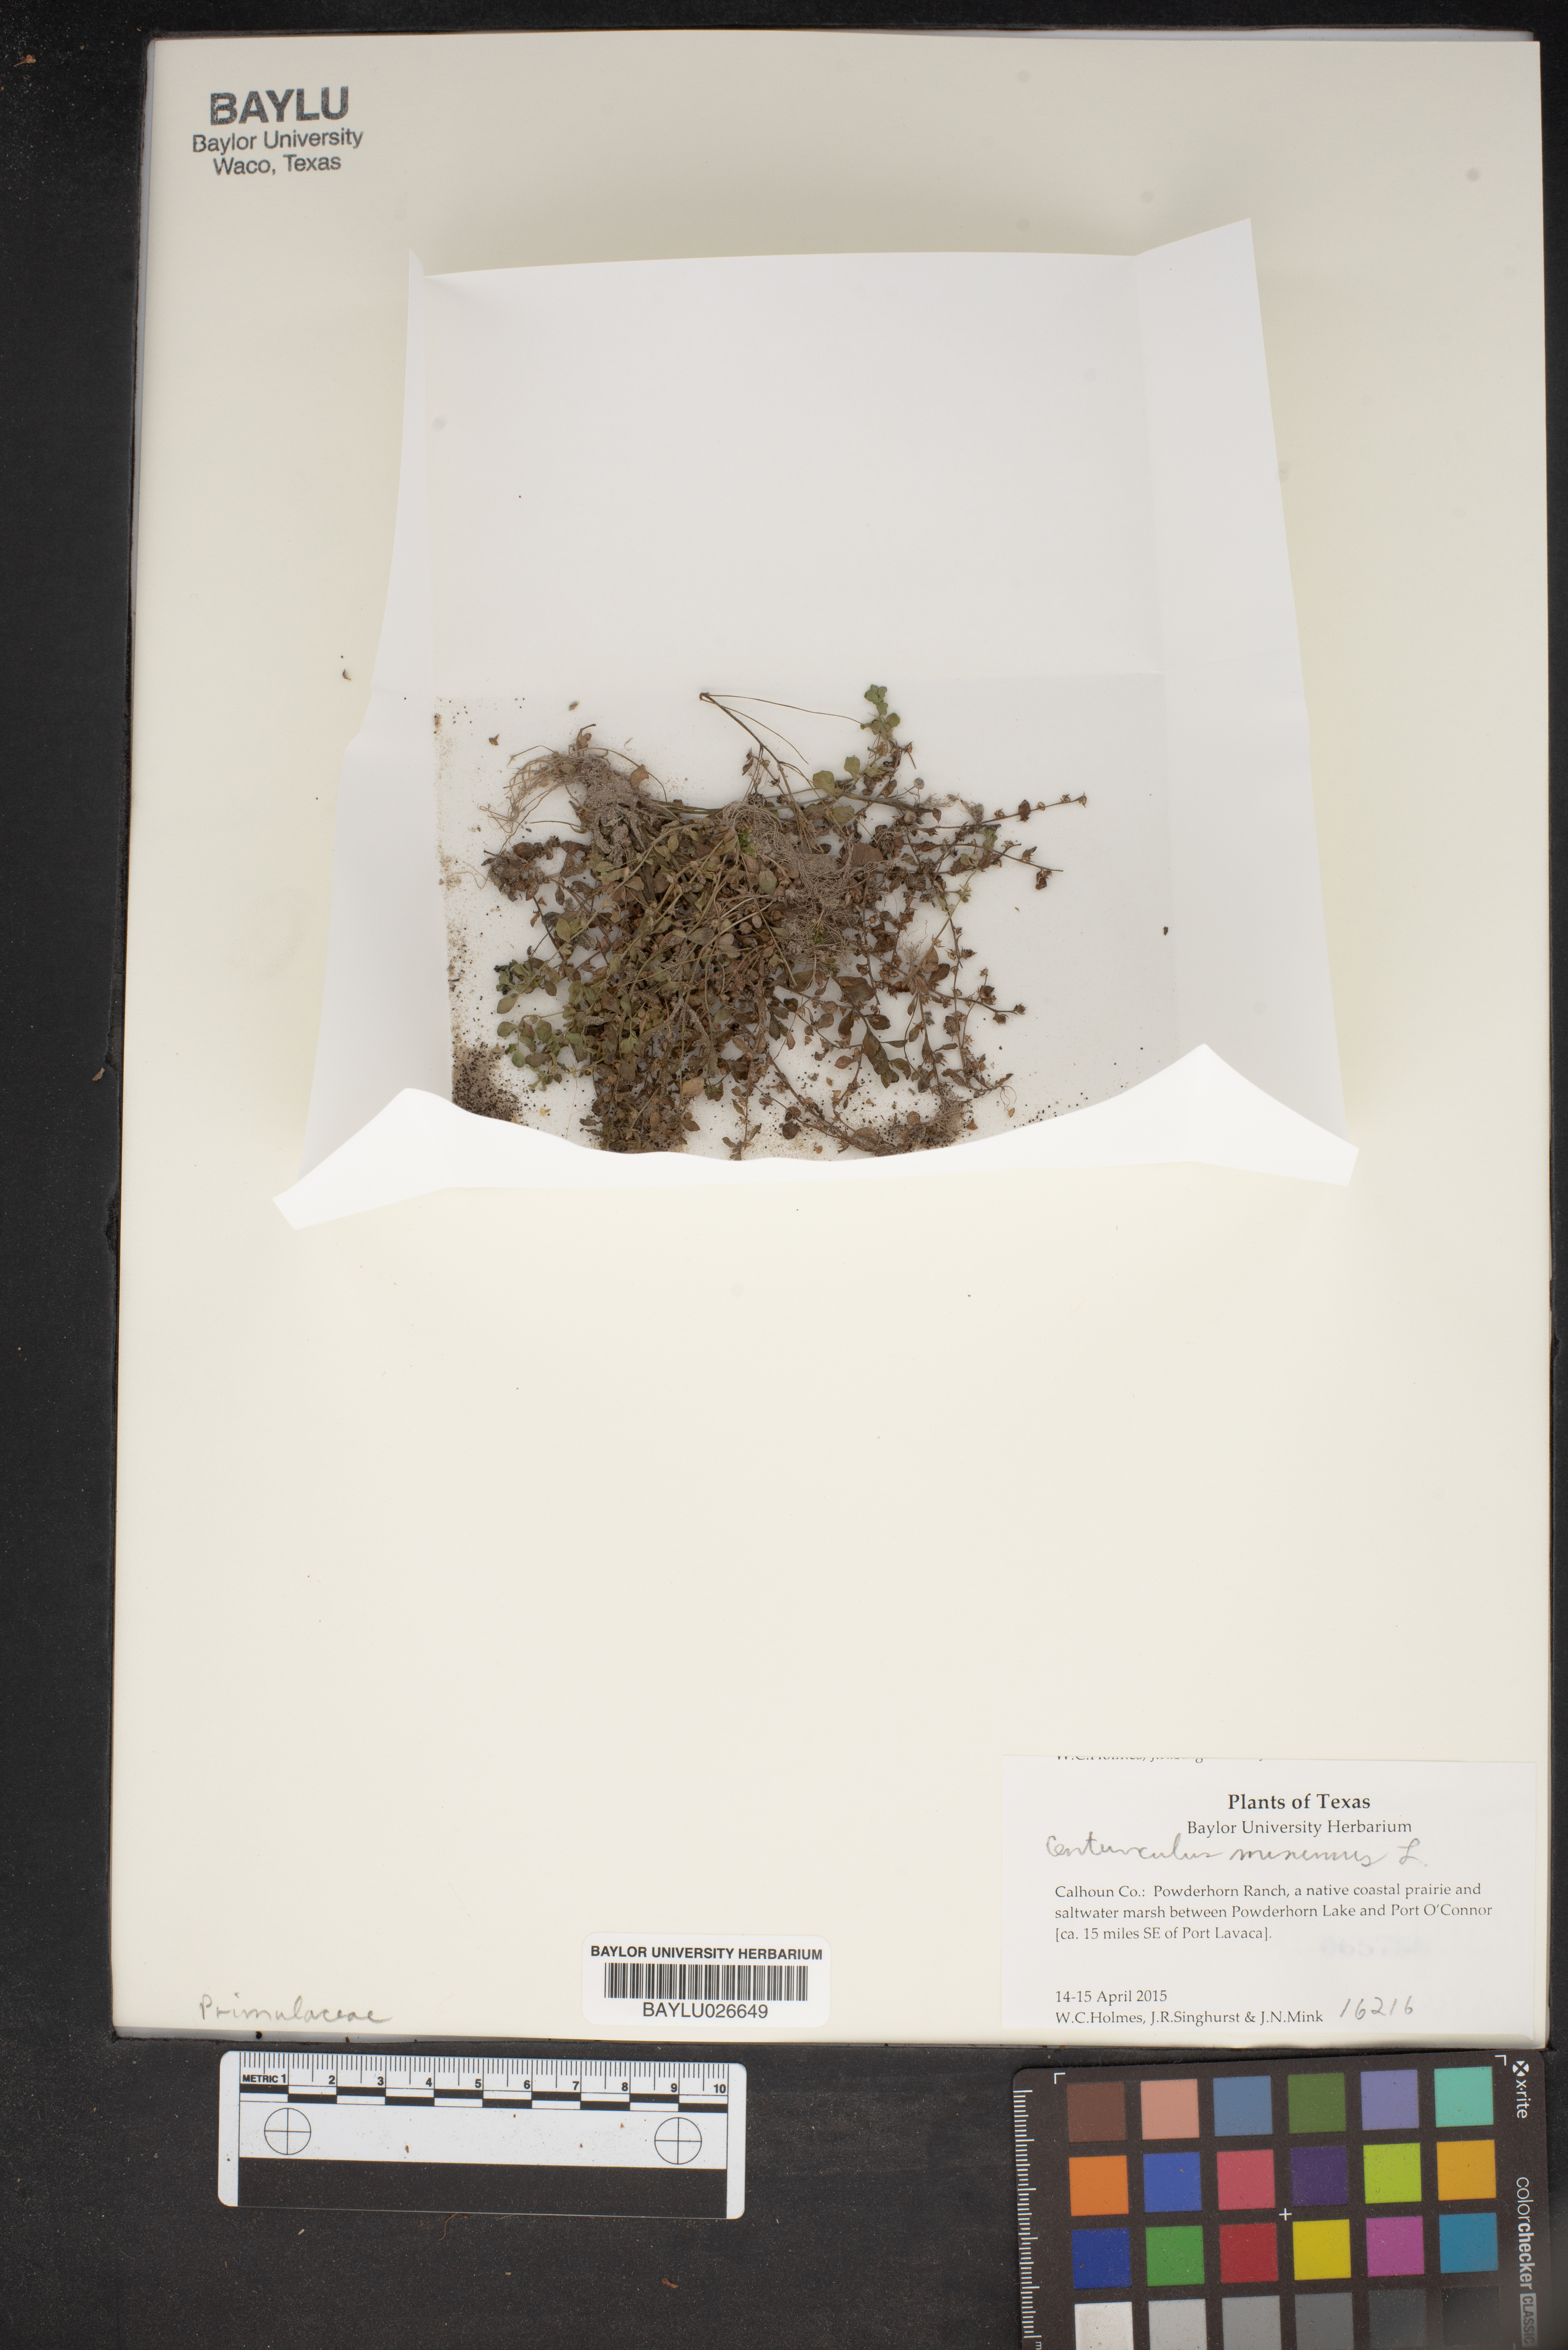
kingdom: Plantae
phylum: Tracheophyta
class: Magnoliopsida
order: Ericales
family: Primulaceae
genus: Lysimachia
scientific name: Lysimachia minima
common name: Chaffweed
